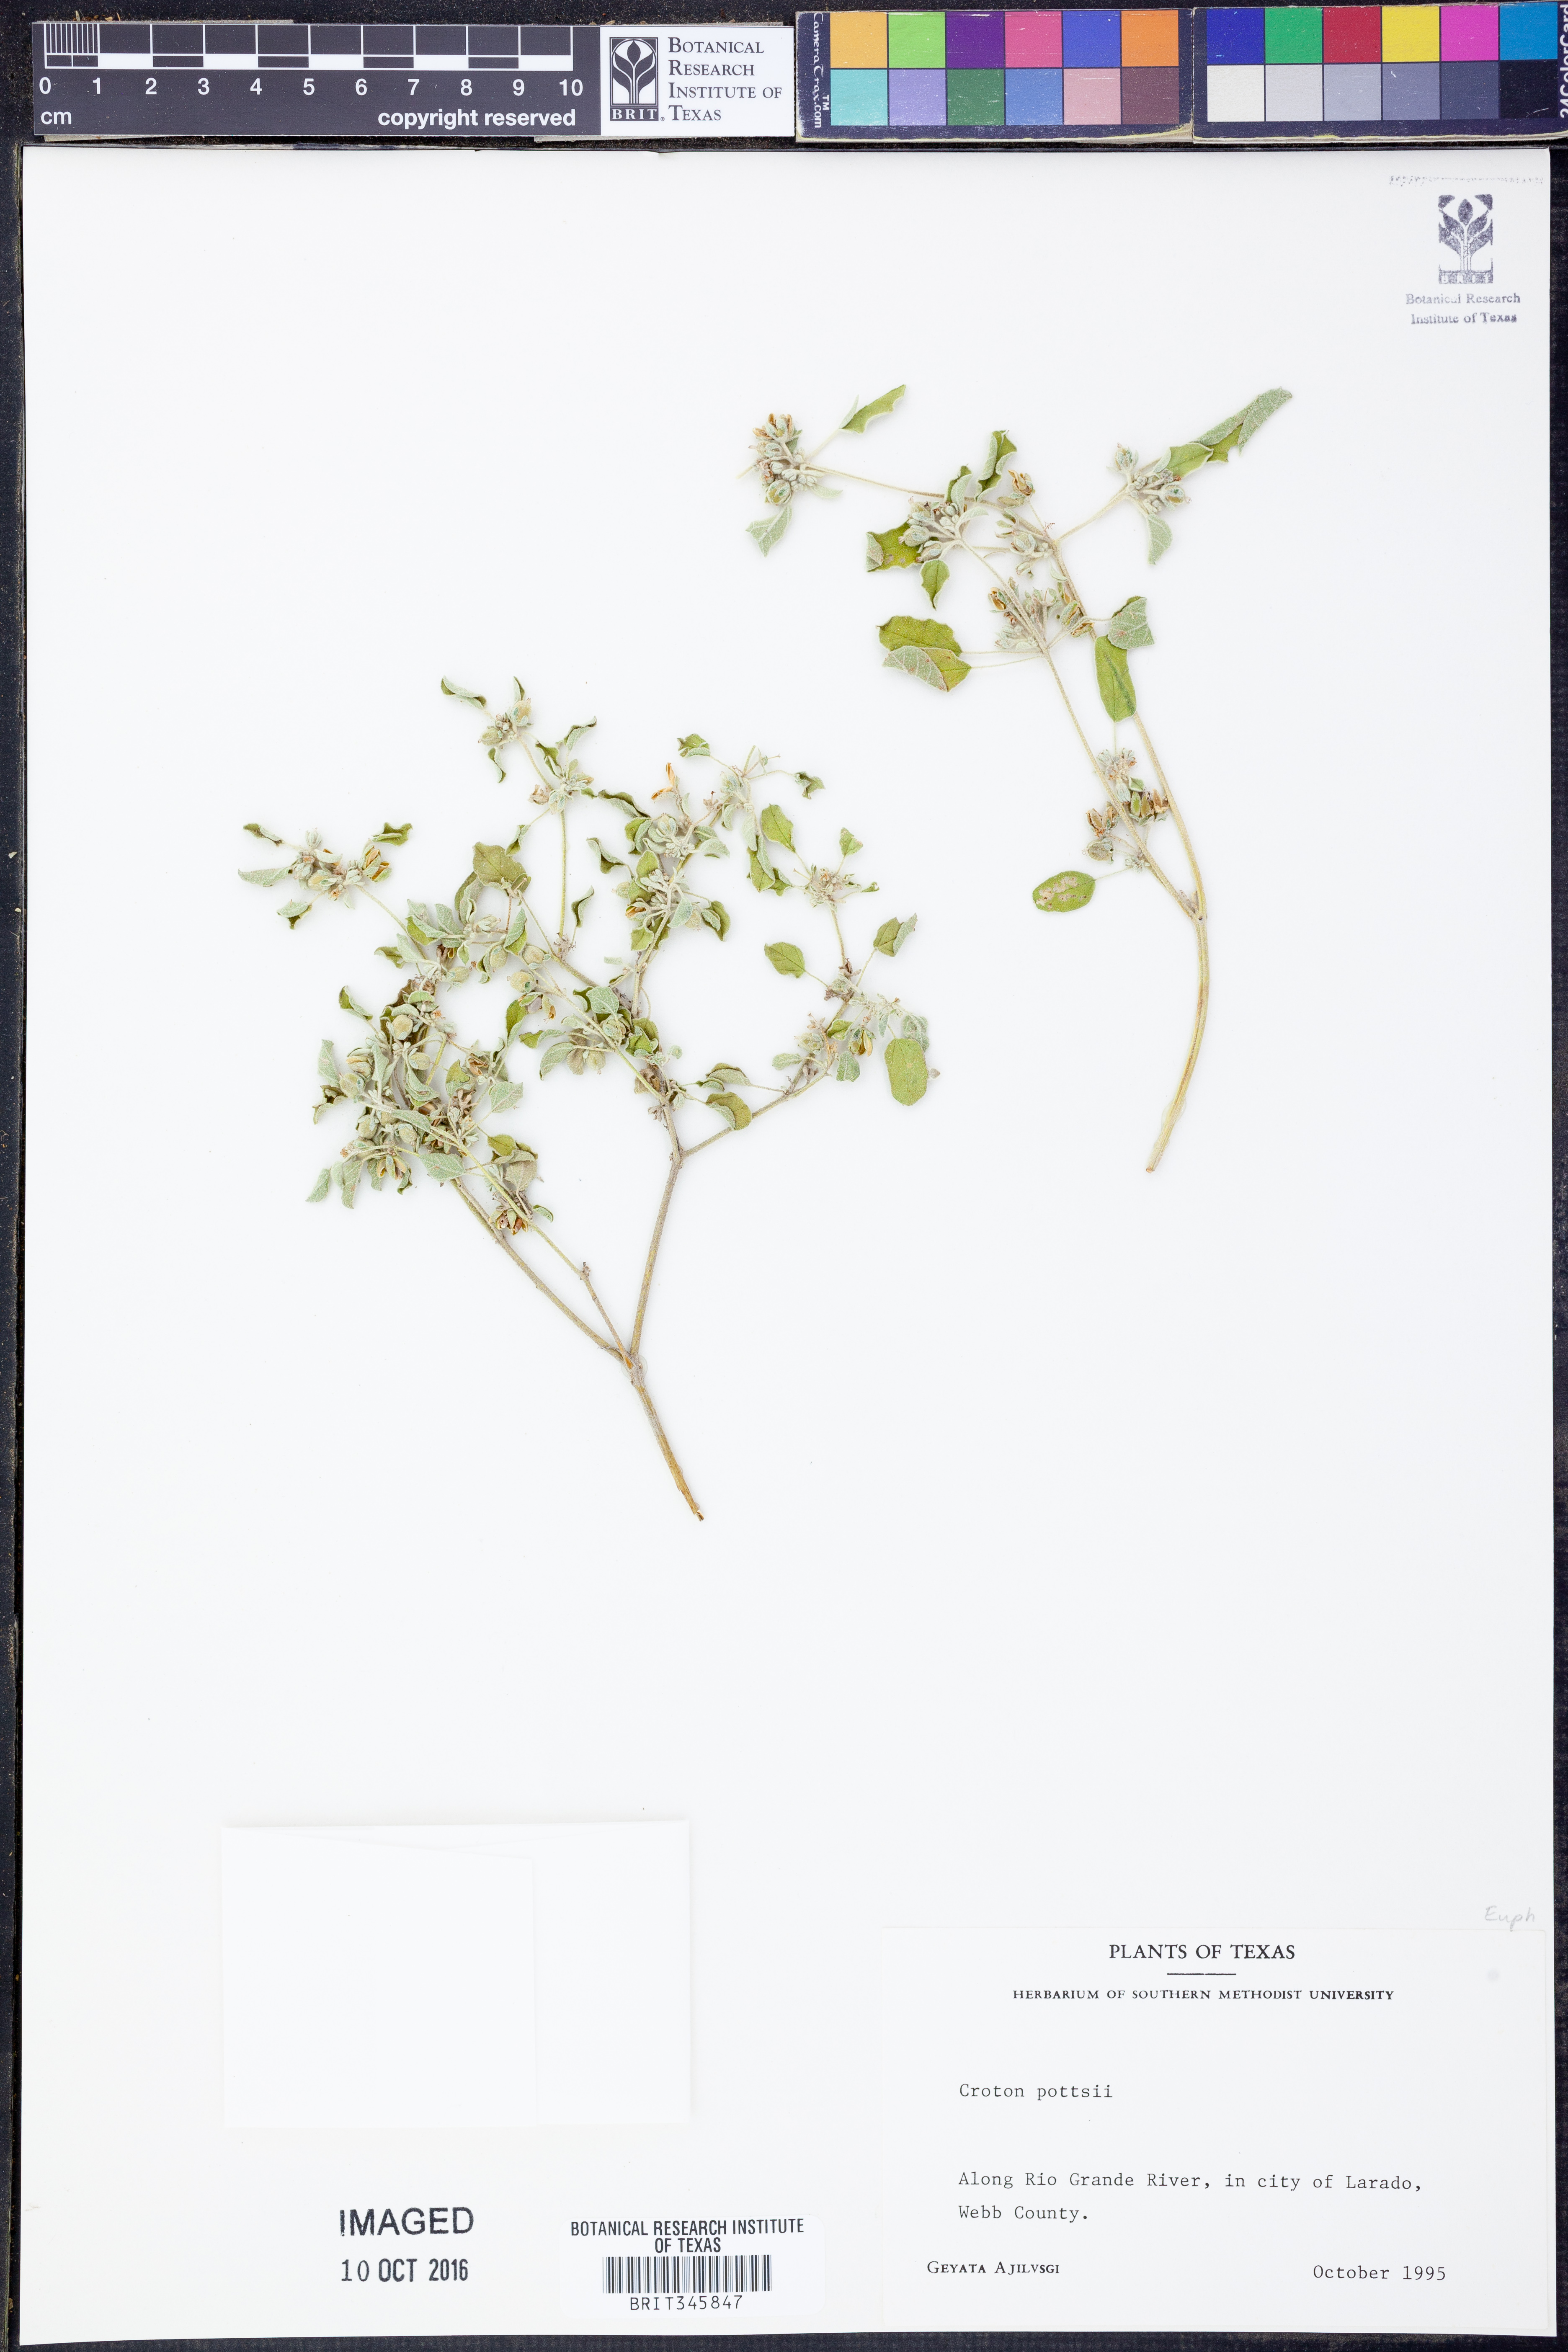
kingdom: Plantae
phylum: Tracheophyta
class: Magnoliopsida
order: Malpighiales
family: Euphorbiaceae
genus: Croton
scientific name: Croton pottsii
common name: Leatherweed
